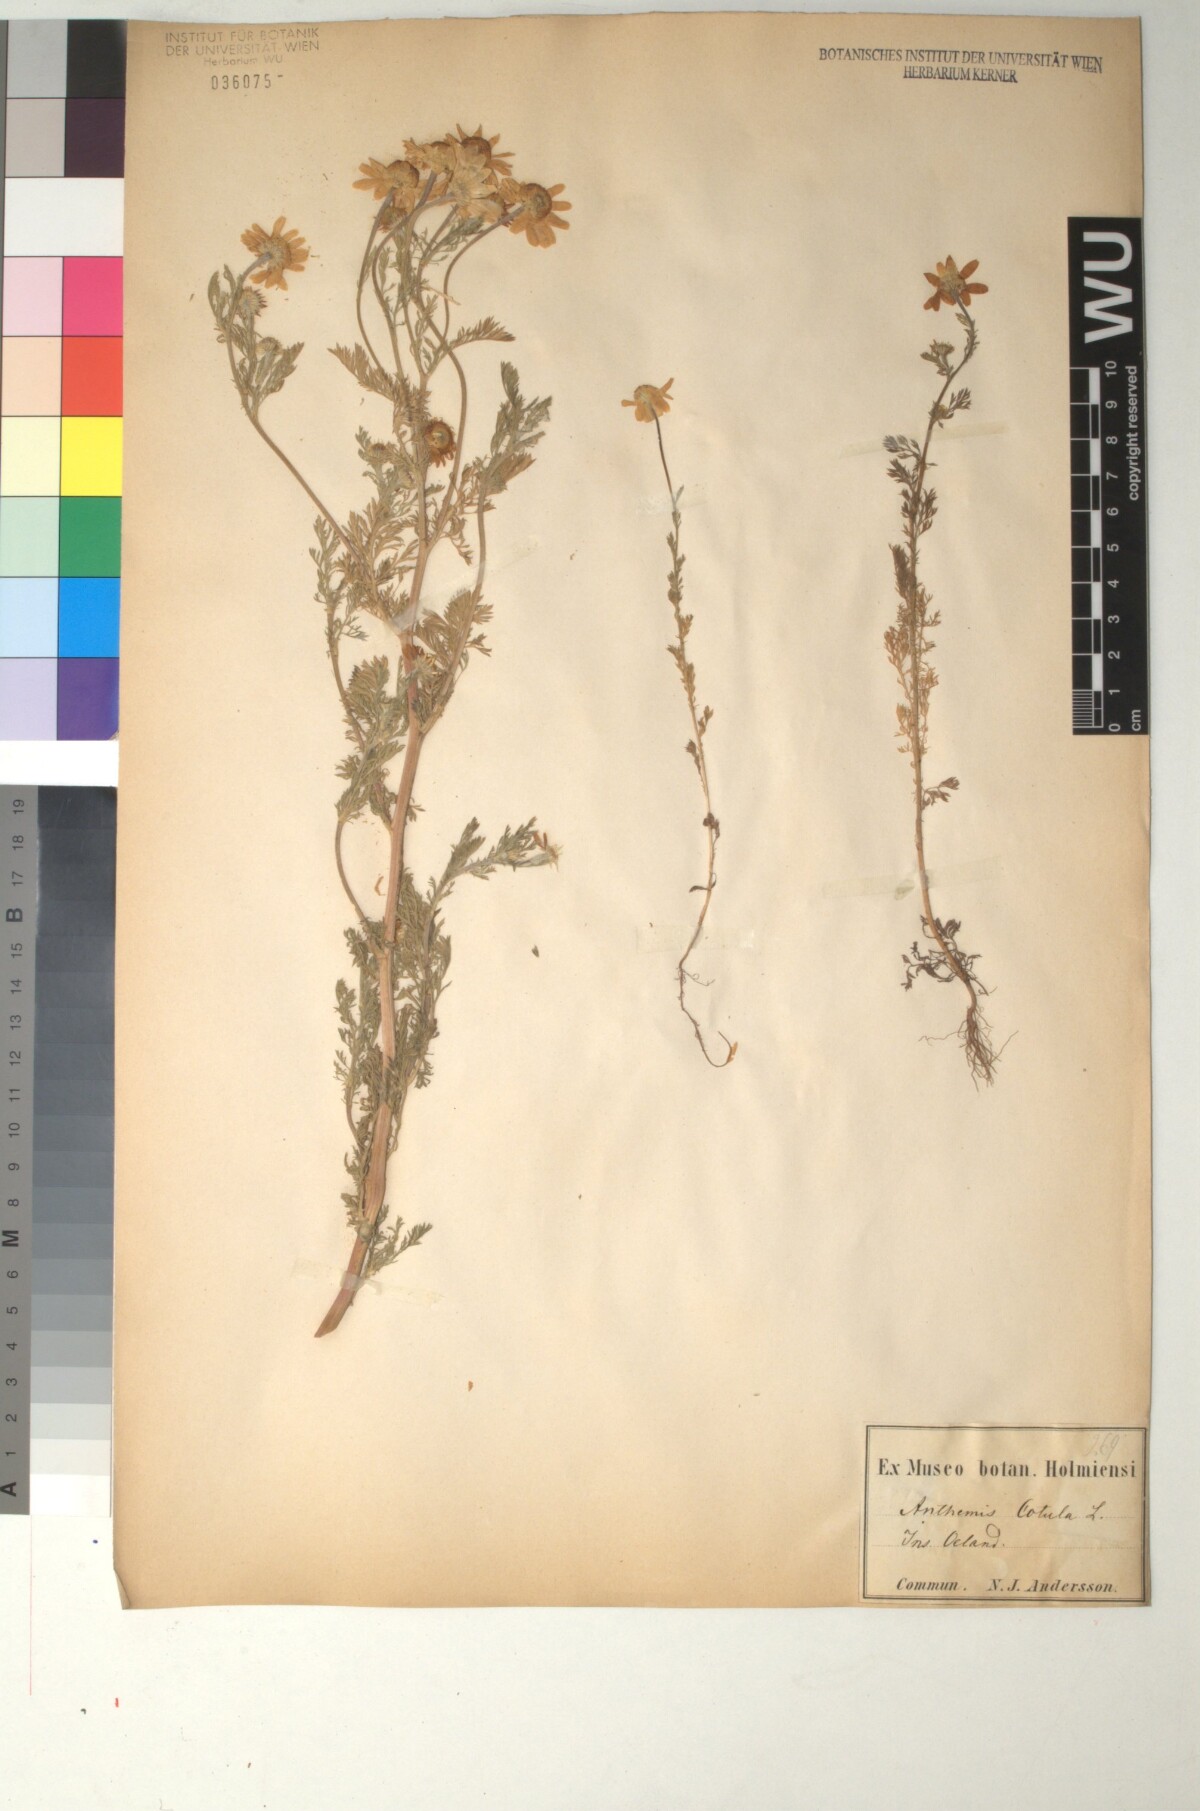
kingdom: Plantae
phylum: Tracheophyta
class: Magnoliopsida
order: Asterales
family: Asteraceae
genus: Anthemis
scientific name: Anthemis cotula
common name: Stinking chamomile
